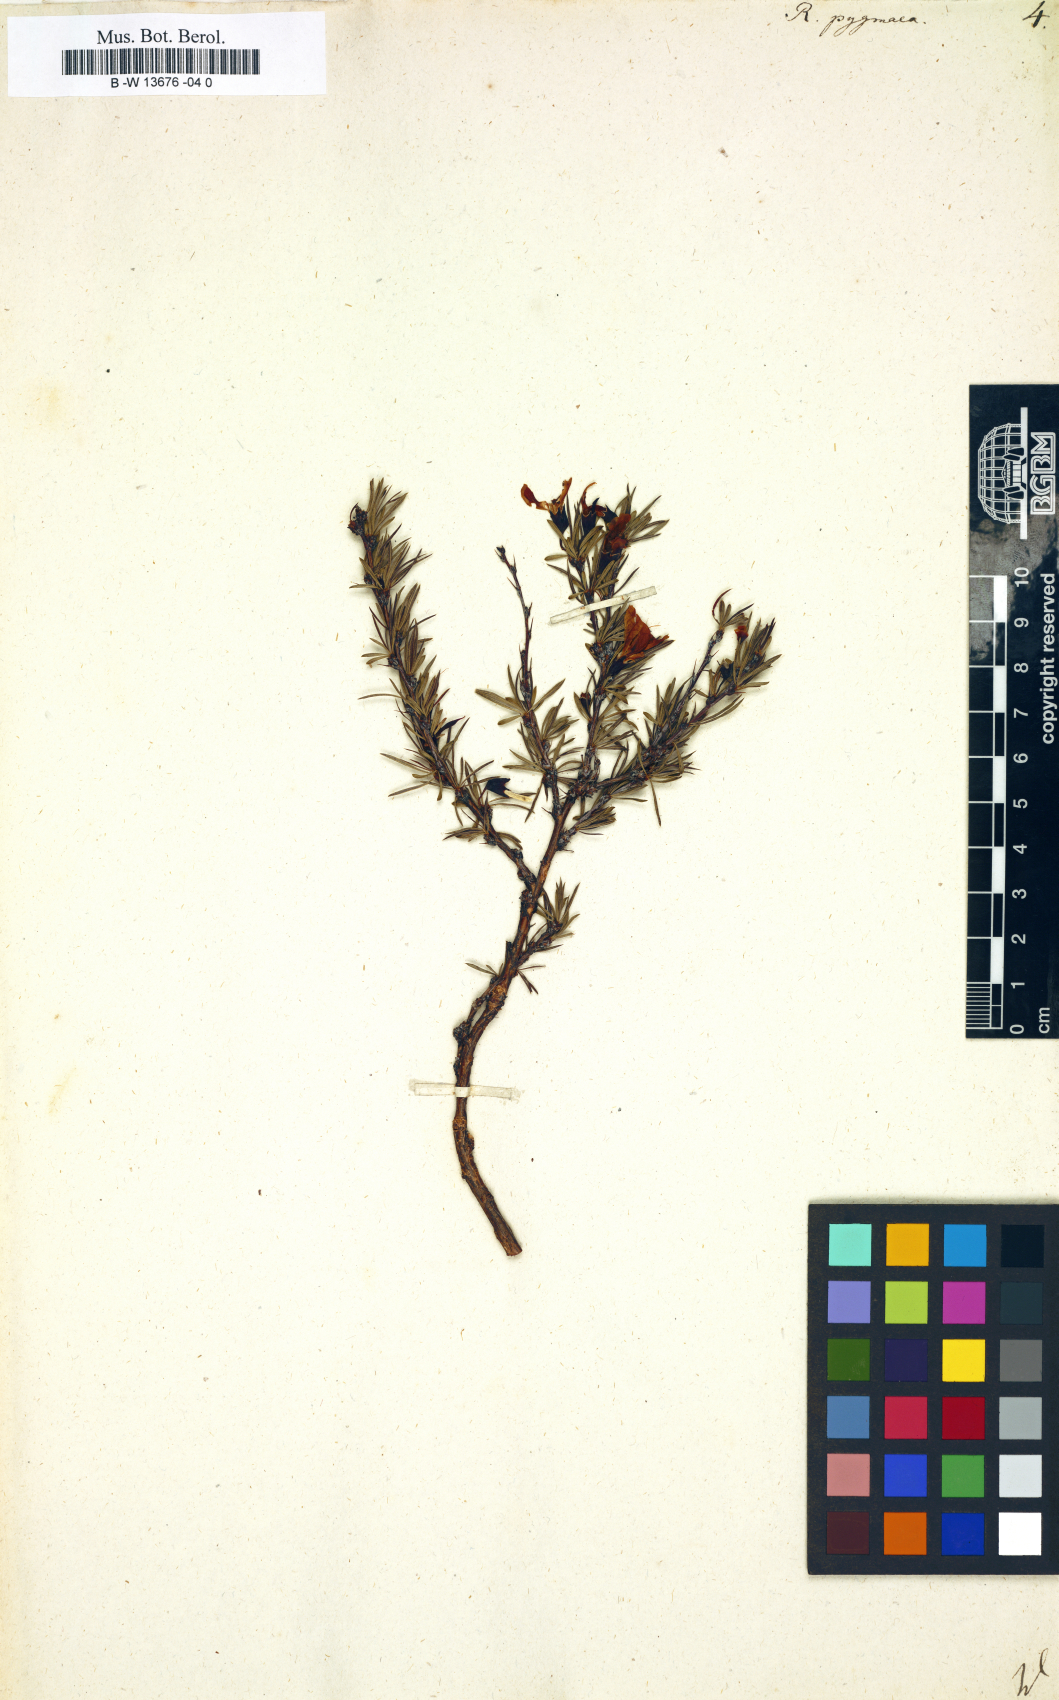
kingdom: Plantae
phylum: Tracheophyta
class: Magnoliopsida
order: Fabales
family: Fabaceae
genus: Caragana
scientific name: Caragana pygmaea
